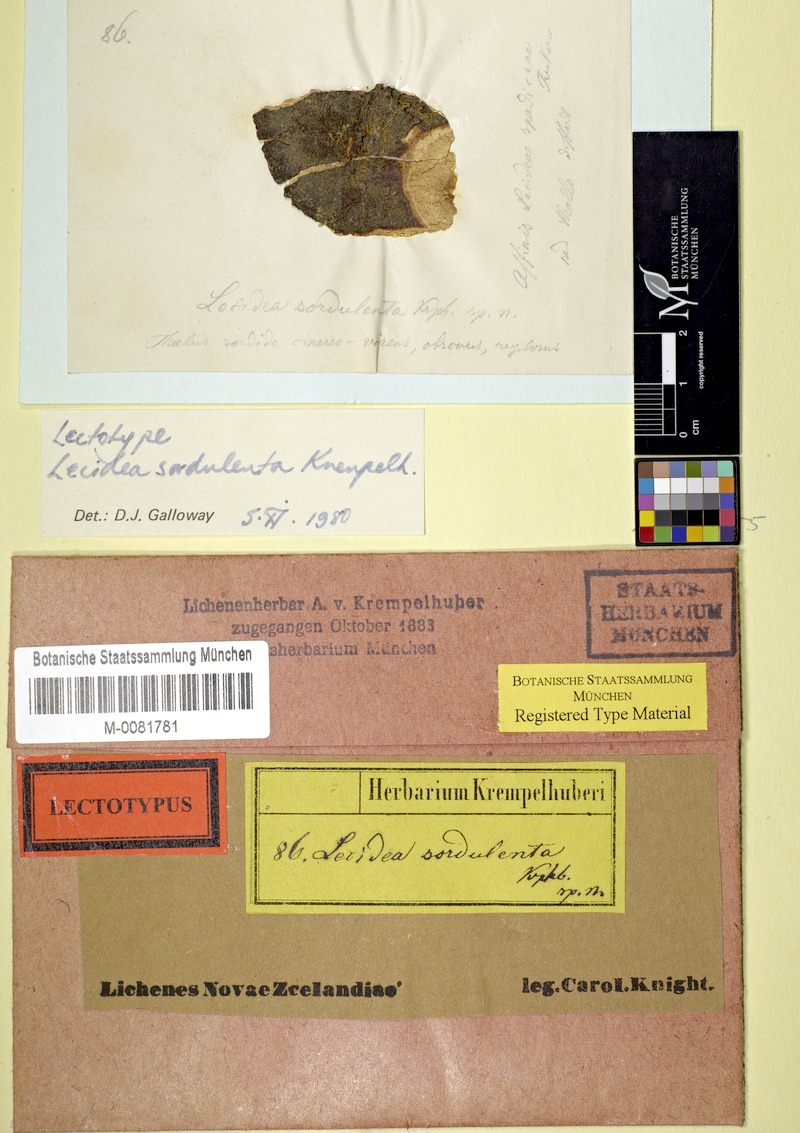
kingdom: Fungi
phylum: Ascomycota
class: Lecanoromycetes
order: Lecideales
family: Lecideaceae
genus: Lecidea
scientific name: Lecidea
